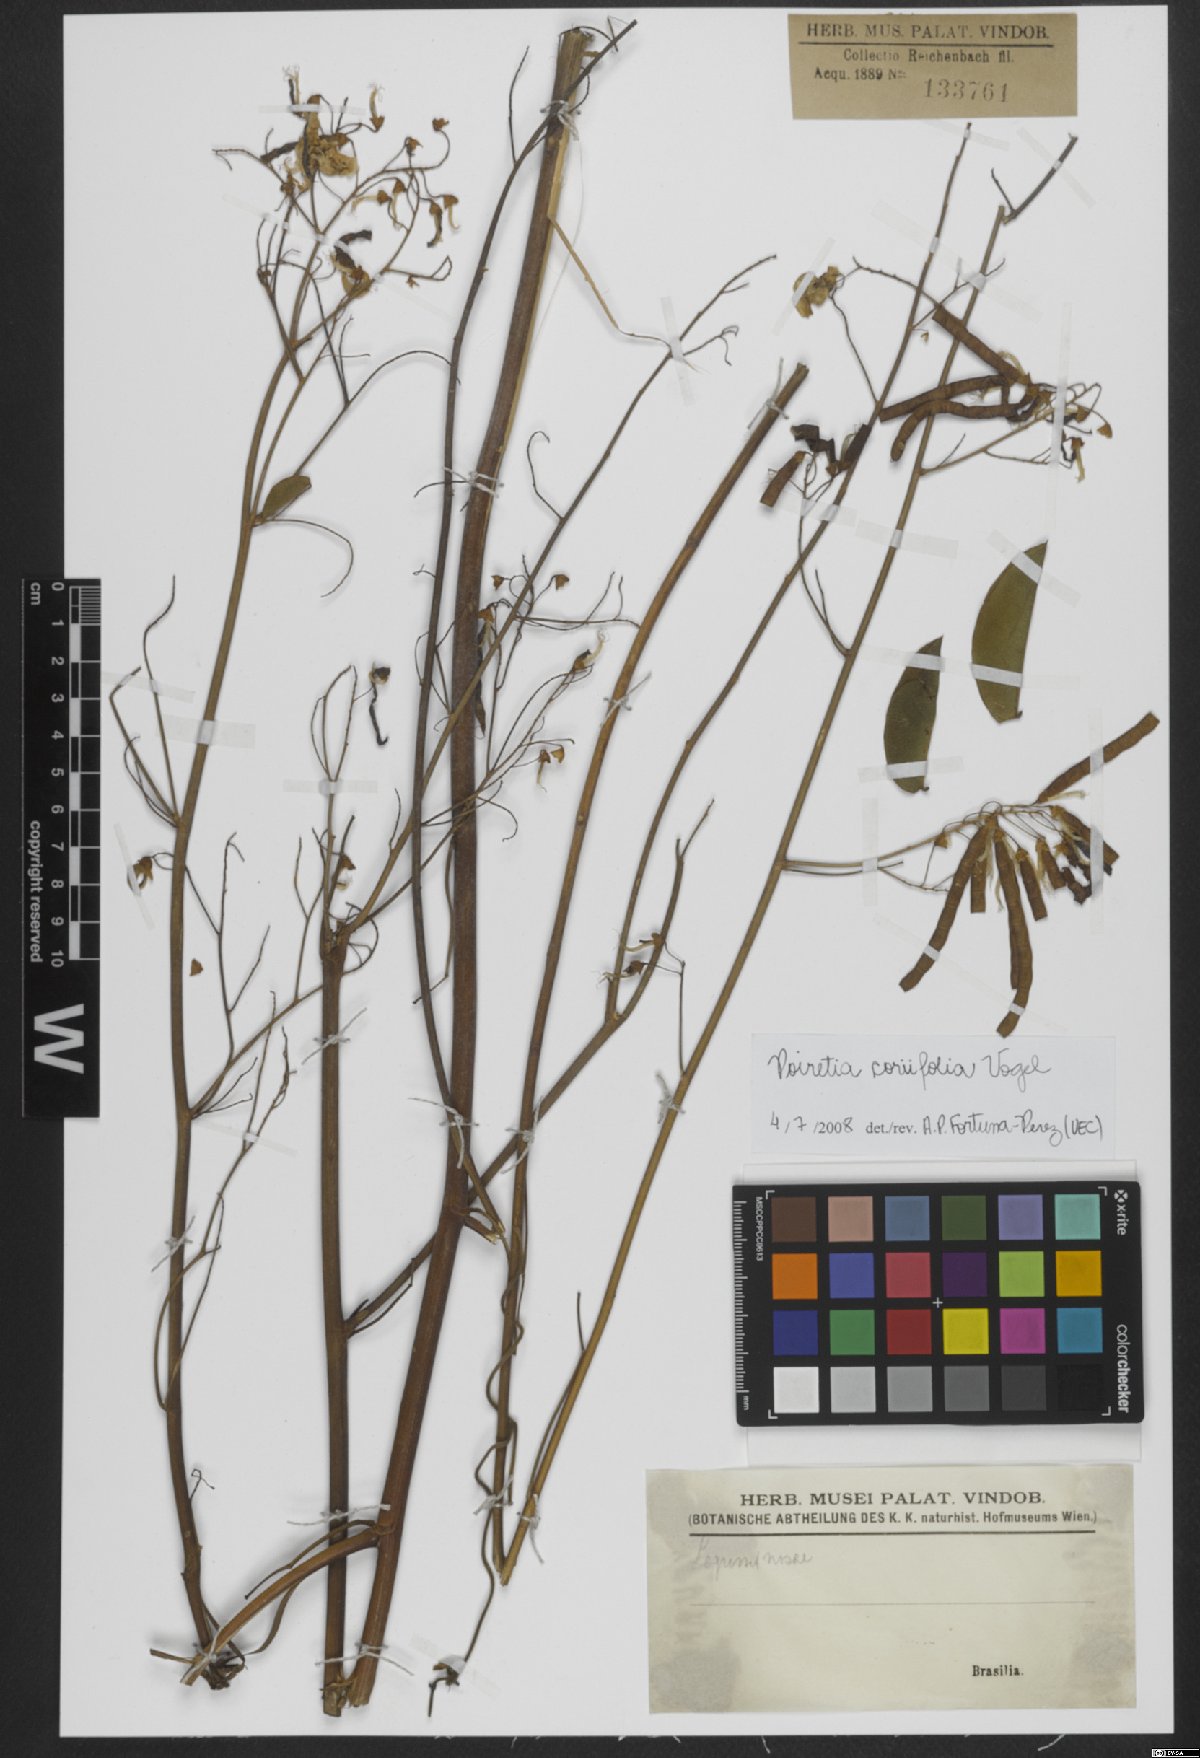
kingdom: Plantae
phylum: Tracheophyta
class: Magnoliopsida
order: Fabales
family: Fabaceae
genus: Poiretia
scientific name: Poiretia coriifolia
